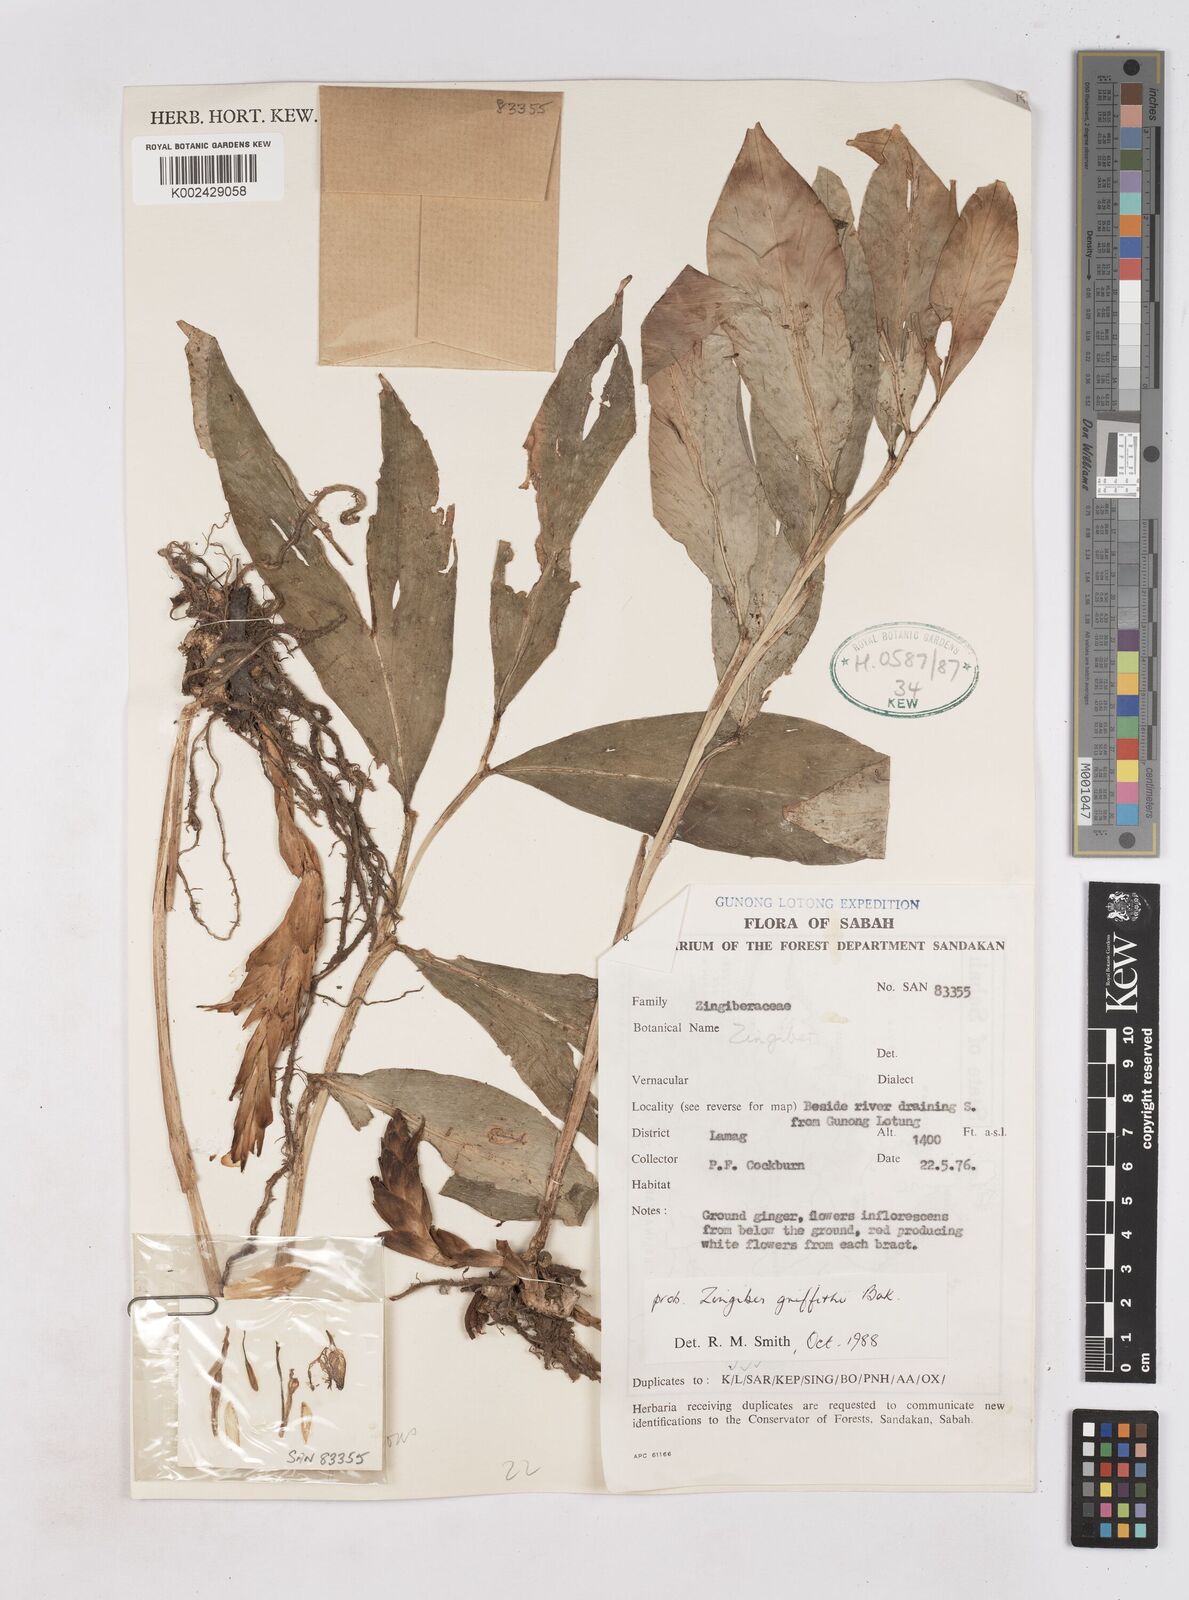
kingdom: Plantae
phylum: Tracheophyta
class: Liliopsida
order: Zingiberales
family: Zingiberaceae
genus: Zingiber
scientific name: Zingiber griffithii
